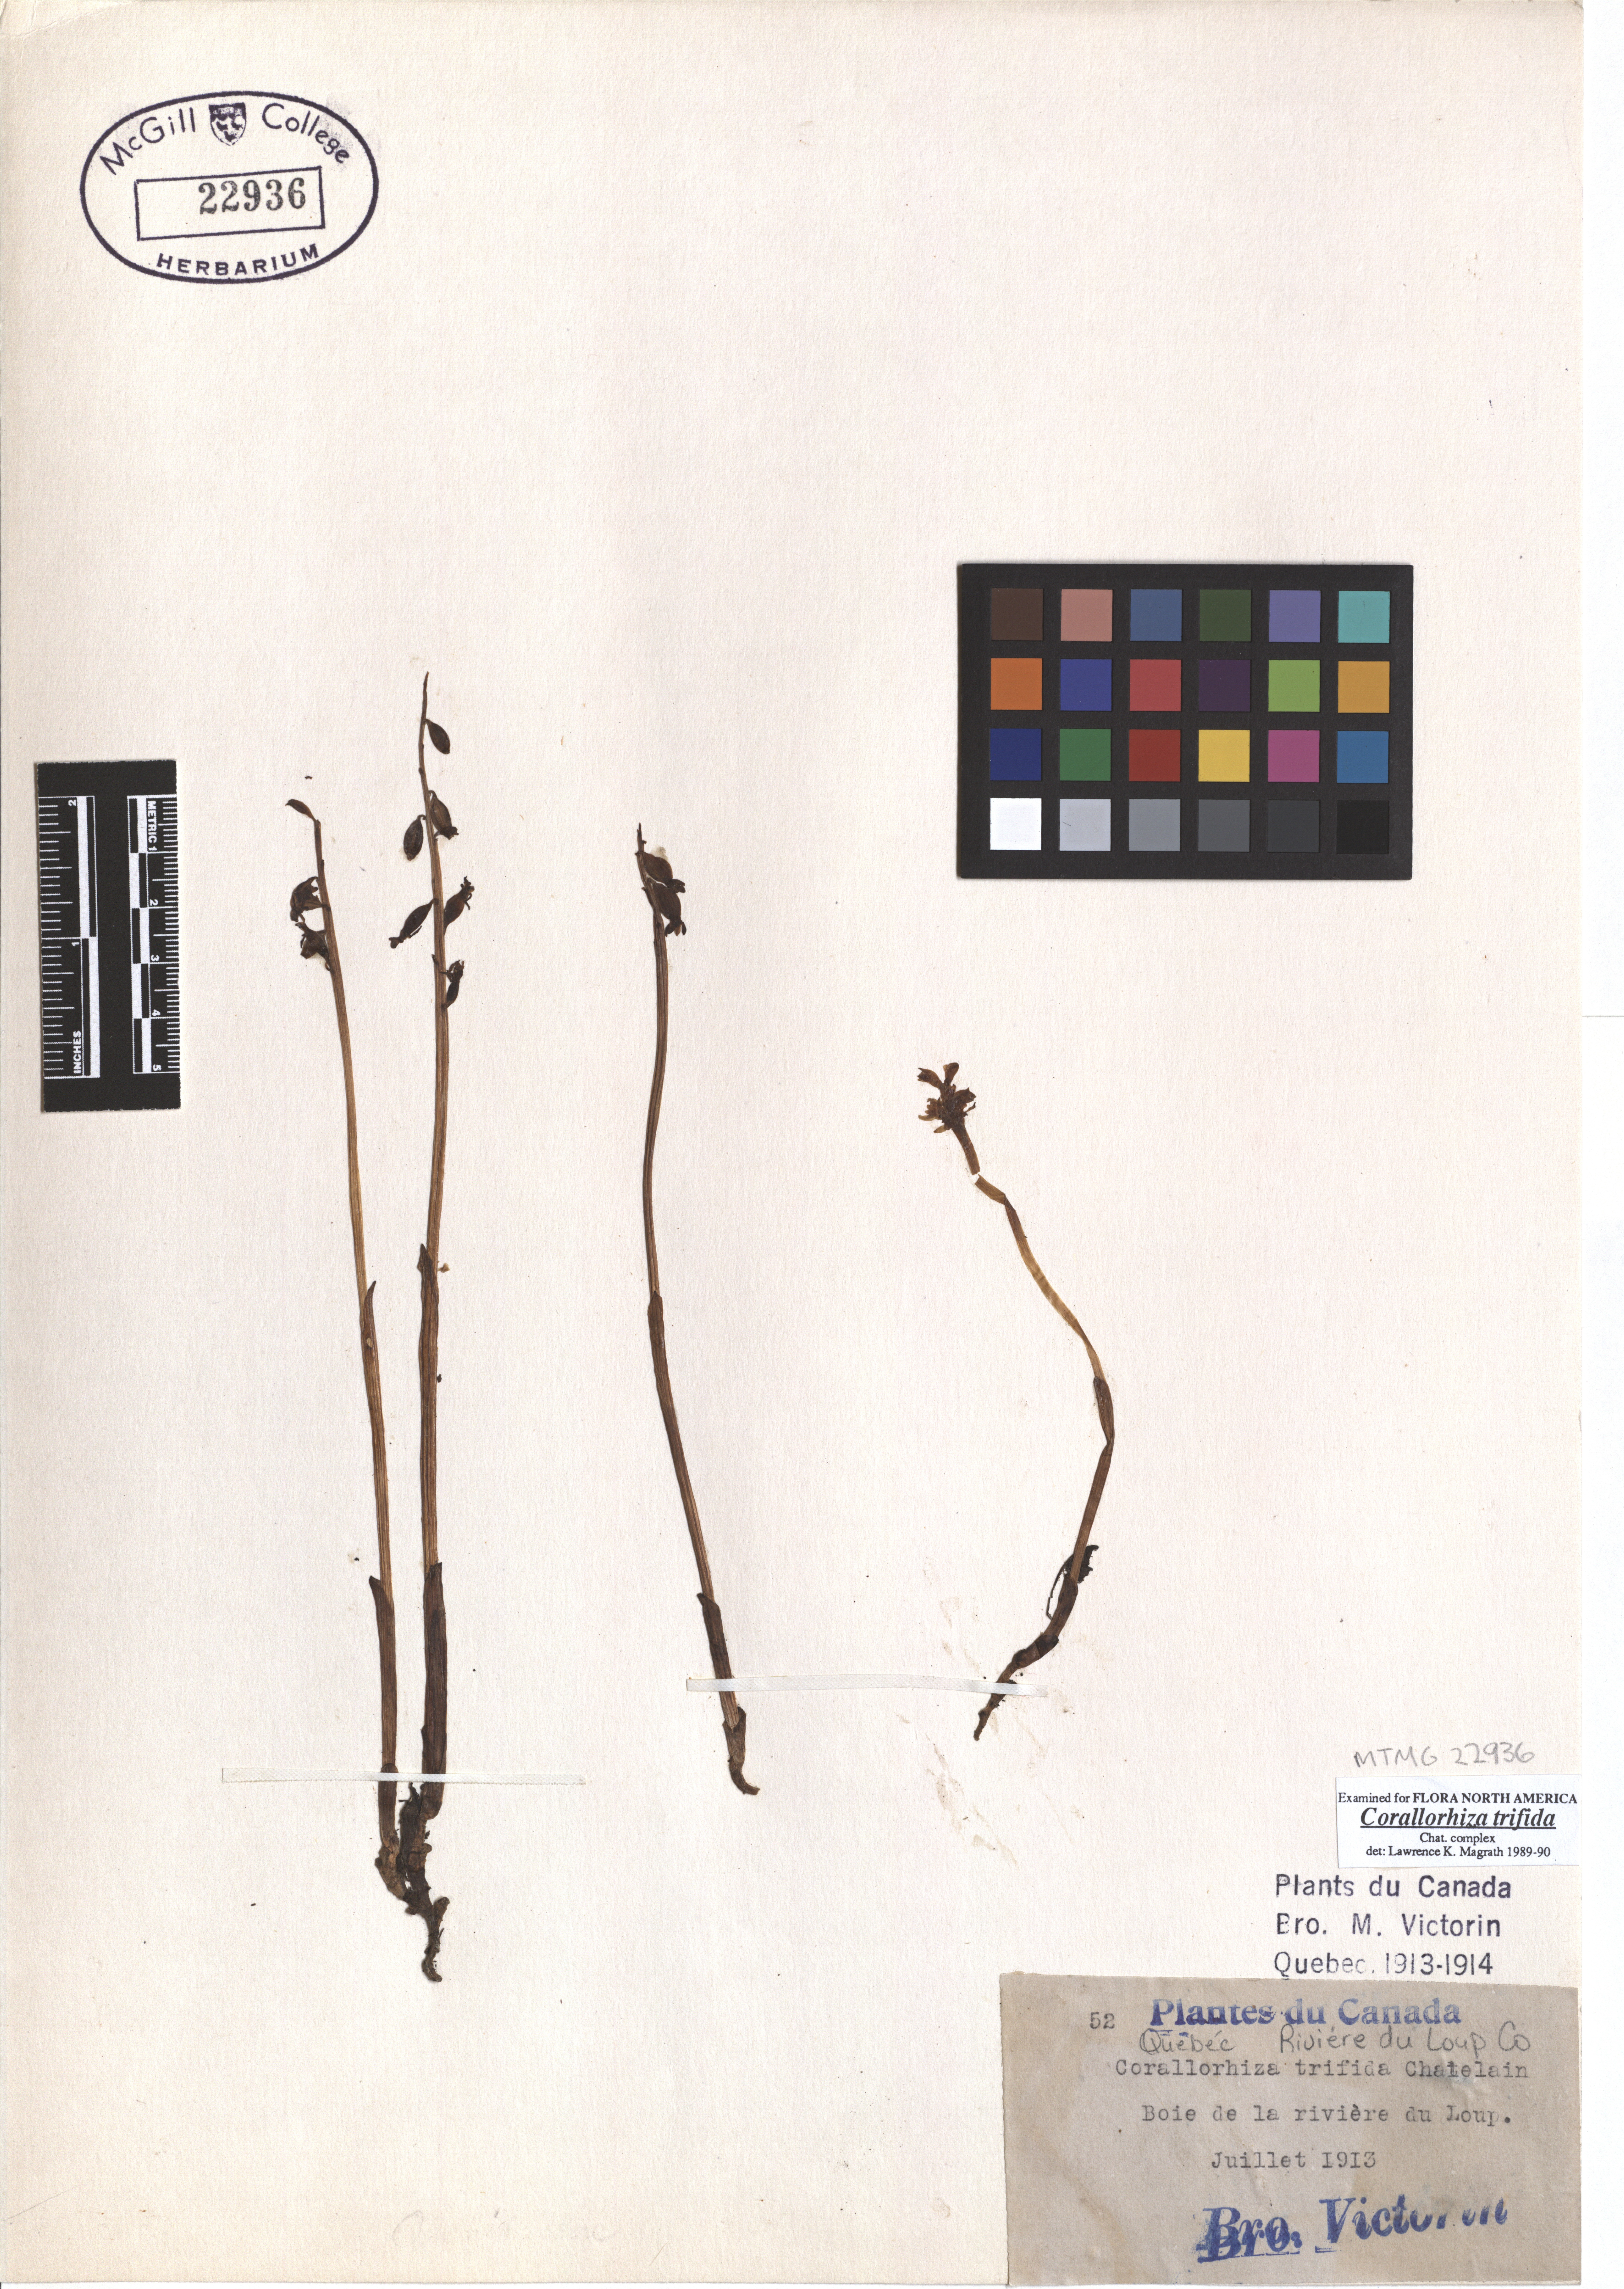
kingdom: Plantae
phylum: Tracheophyta
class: Liliopsida
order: Asparagales
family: Orchidaceae
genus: Corallorhiza
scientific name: Corallorhiza trifida
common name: Yellow coralroot
